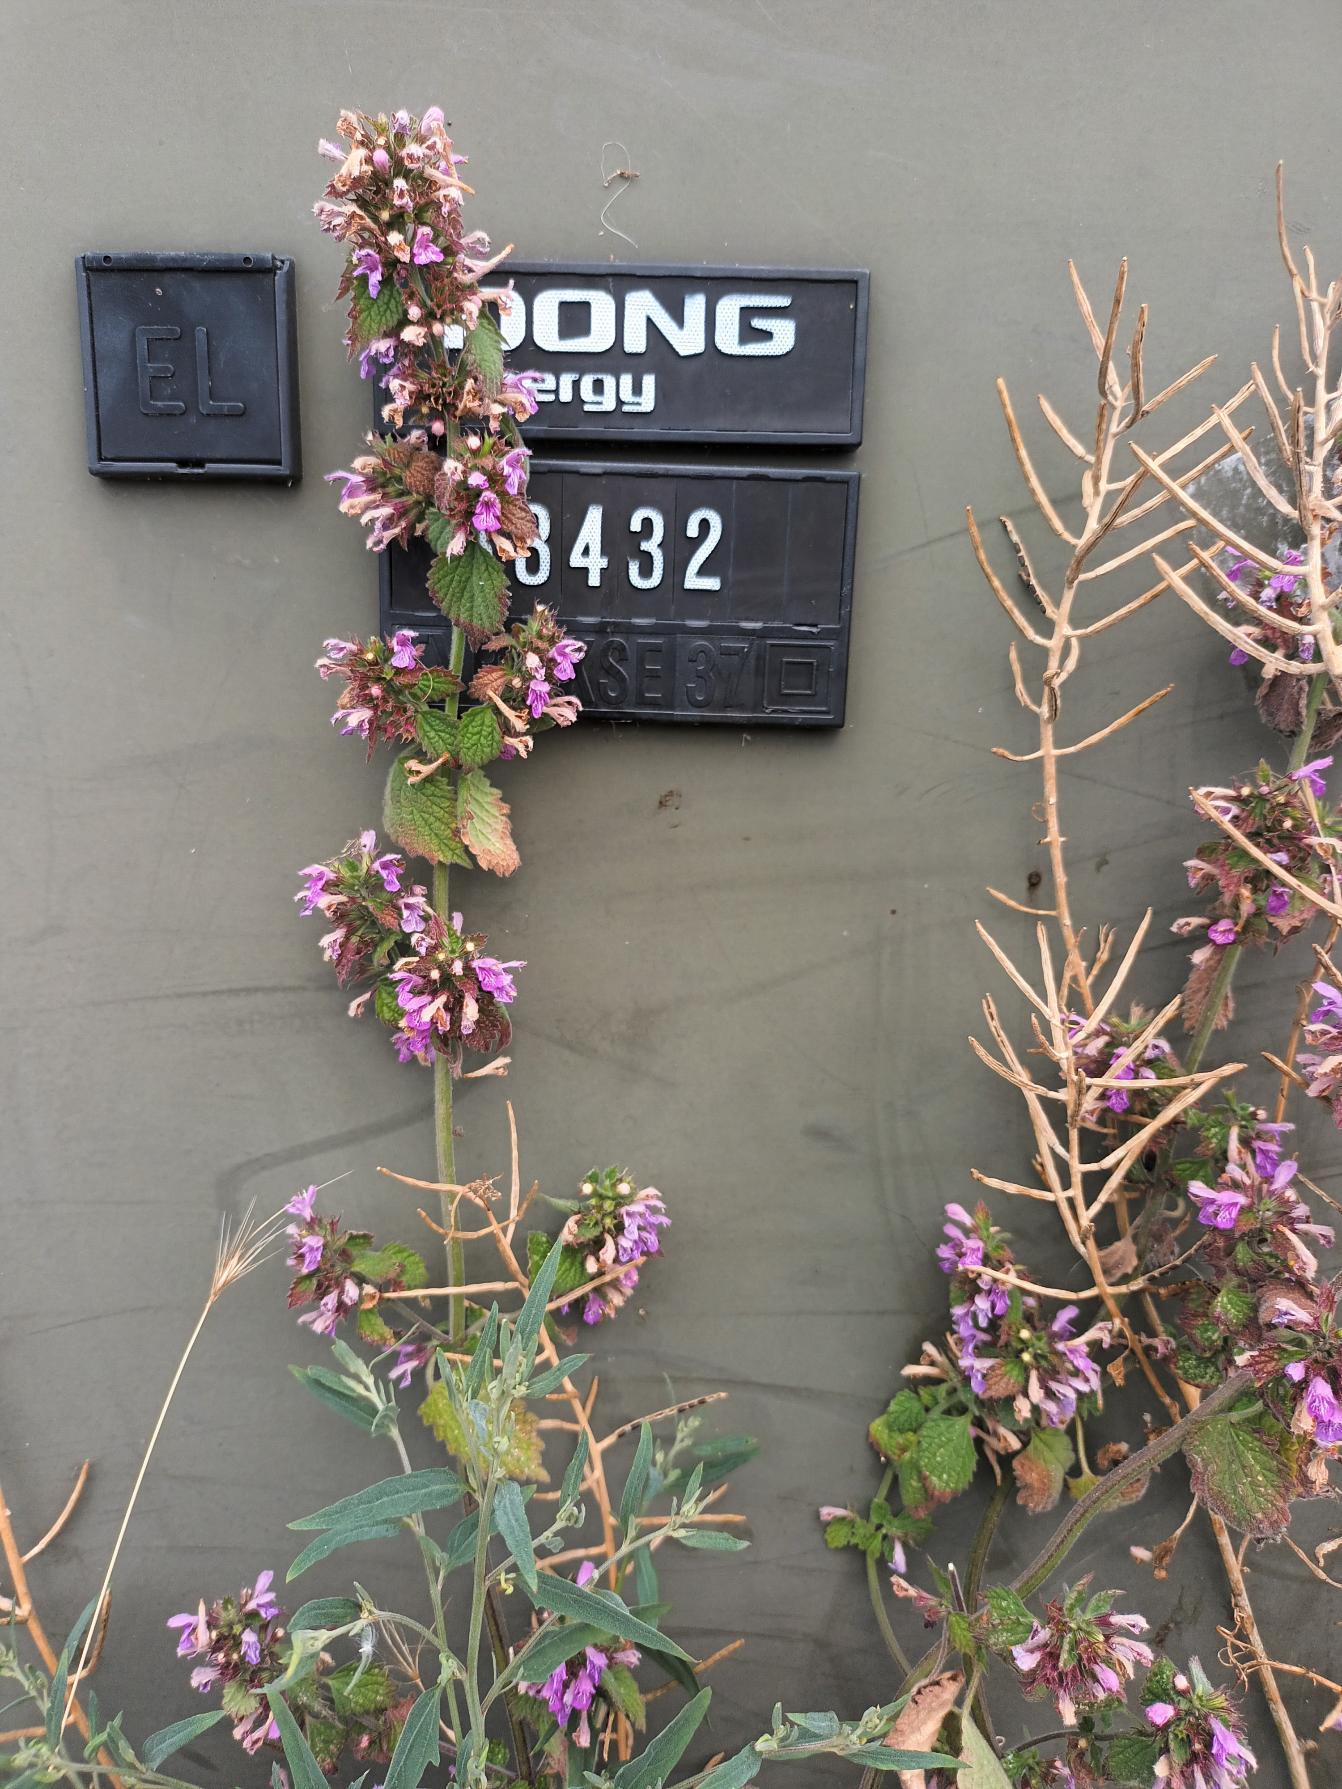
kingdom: Plantae
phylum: Tracheophyta
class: Magnoliopsida
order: Lamiales
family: Lamiaceae
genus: Ballota
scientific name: Ballota nigra
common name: Tandbæger
